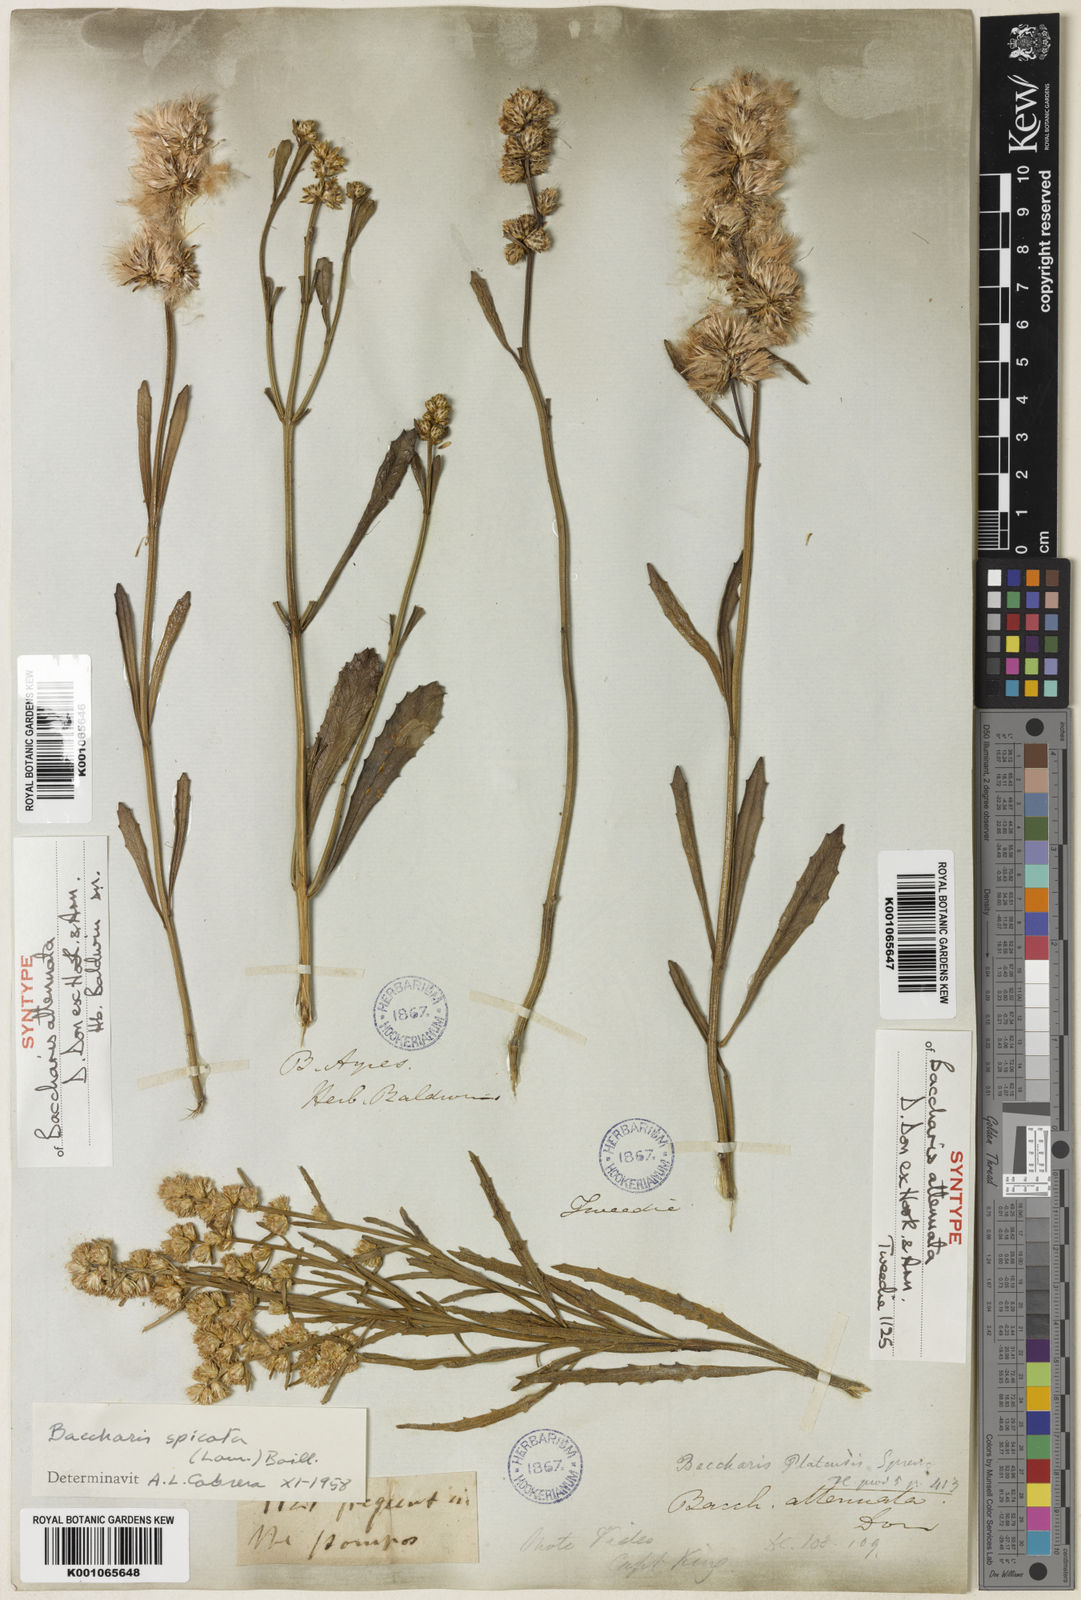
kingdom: Plantae
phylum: Tracheophyta
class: Magnoliopsida
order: Asterales
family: Asteraceae
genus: Baccharis
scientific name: Baccharis spicata
